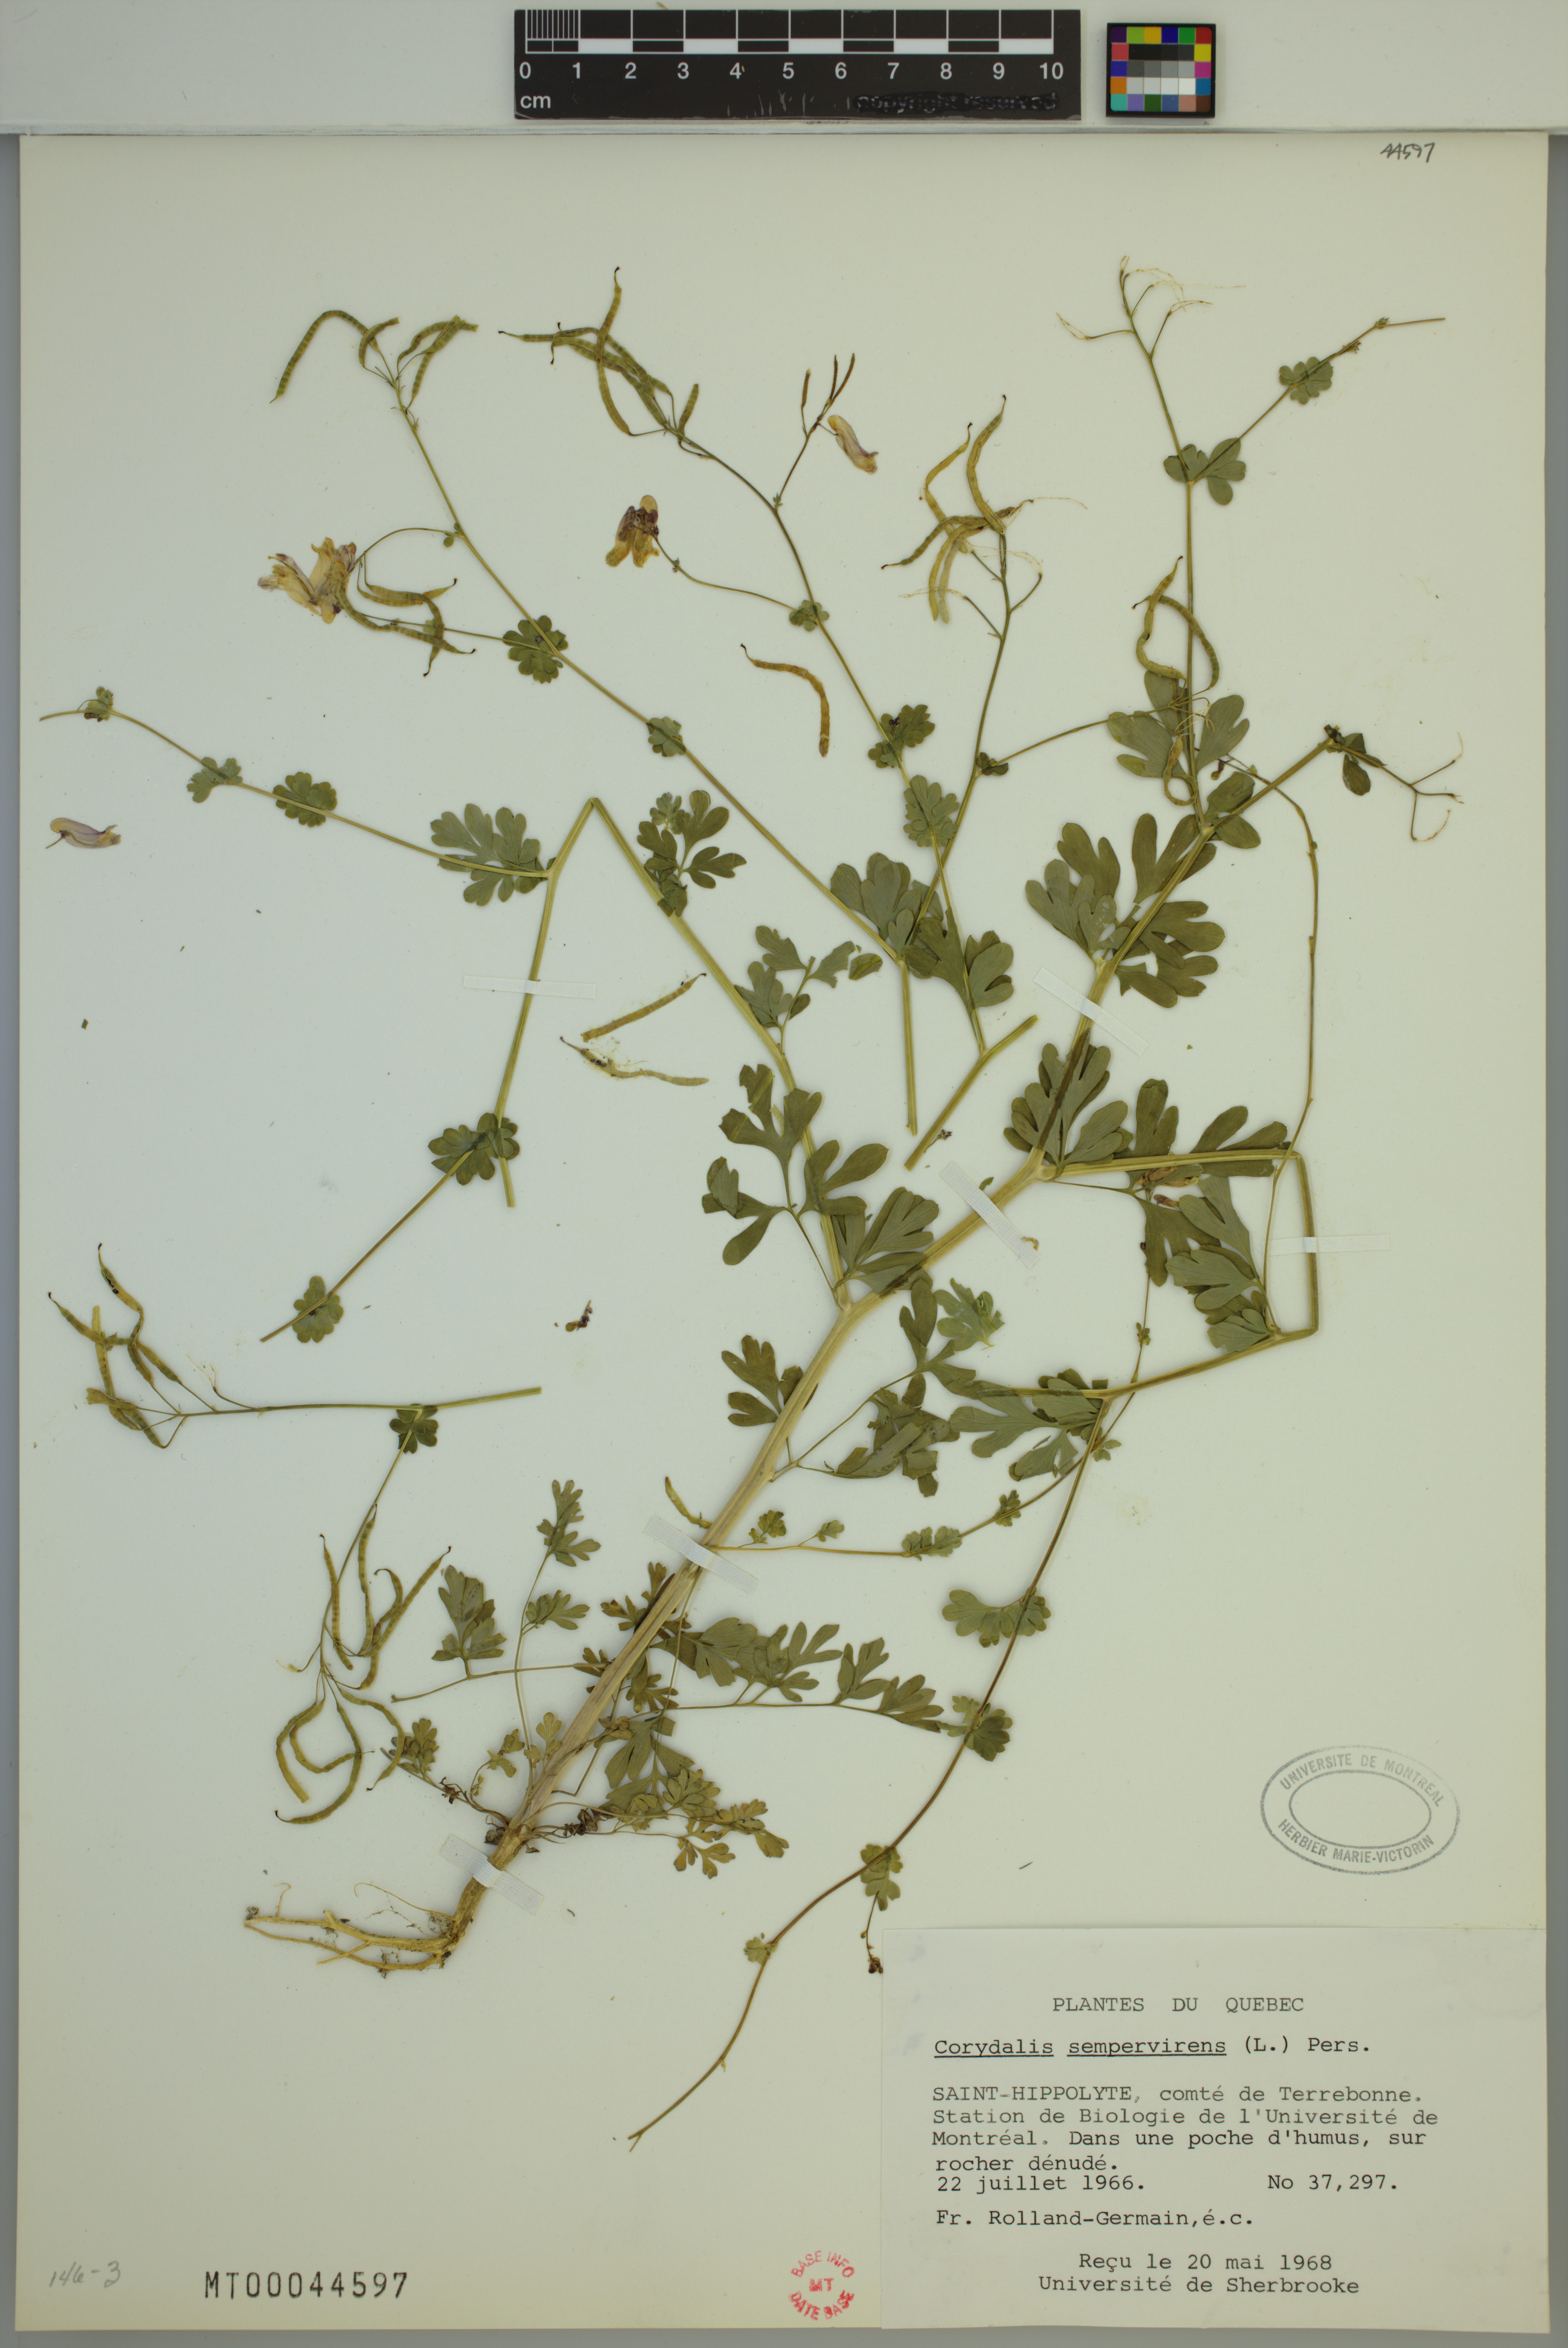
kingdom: Plantae
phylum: Tracheophyta
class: Magnoliopsida
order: Ranunculales
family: Papaveraceae
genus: Capnoides
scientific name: Capnoides sempervirens
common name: Rock harlequin
